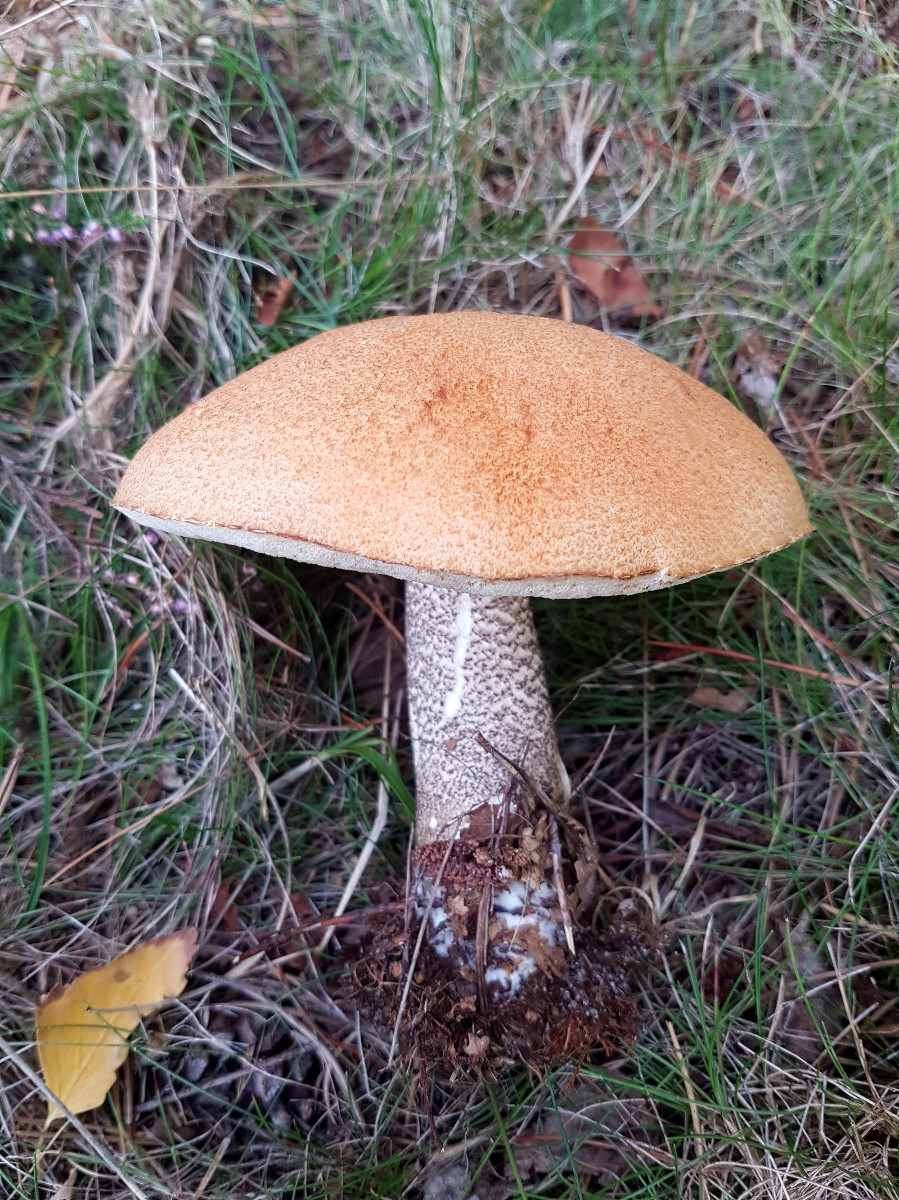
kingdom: Fungi
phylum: Basidiomycota
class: Agaricomycetes
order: Boletales
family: Boletaceae
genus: Leccinum
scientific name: Leccinum versipelle
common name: orange skælrørhat
